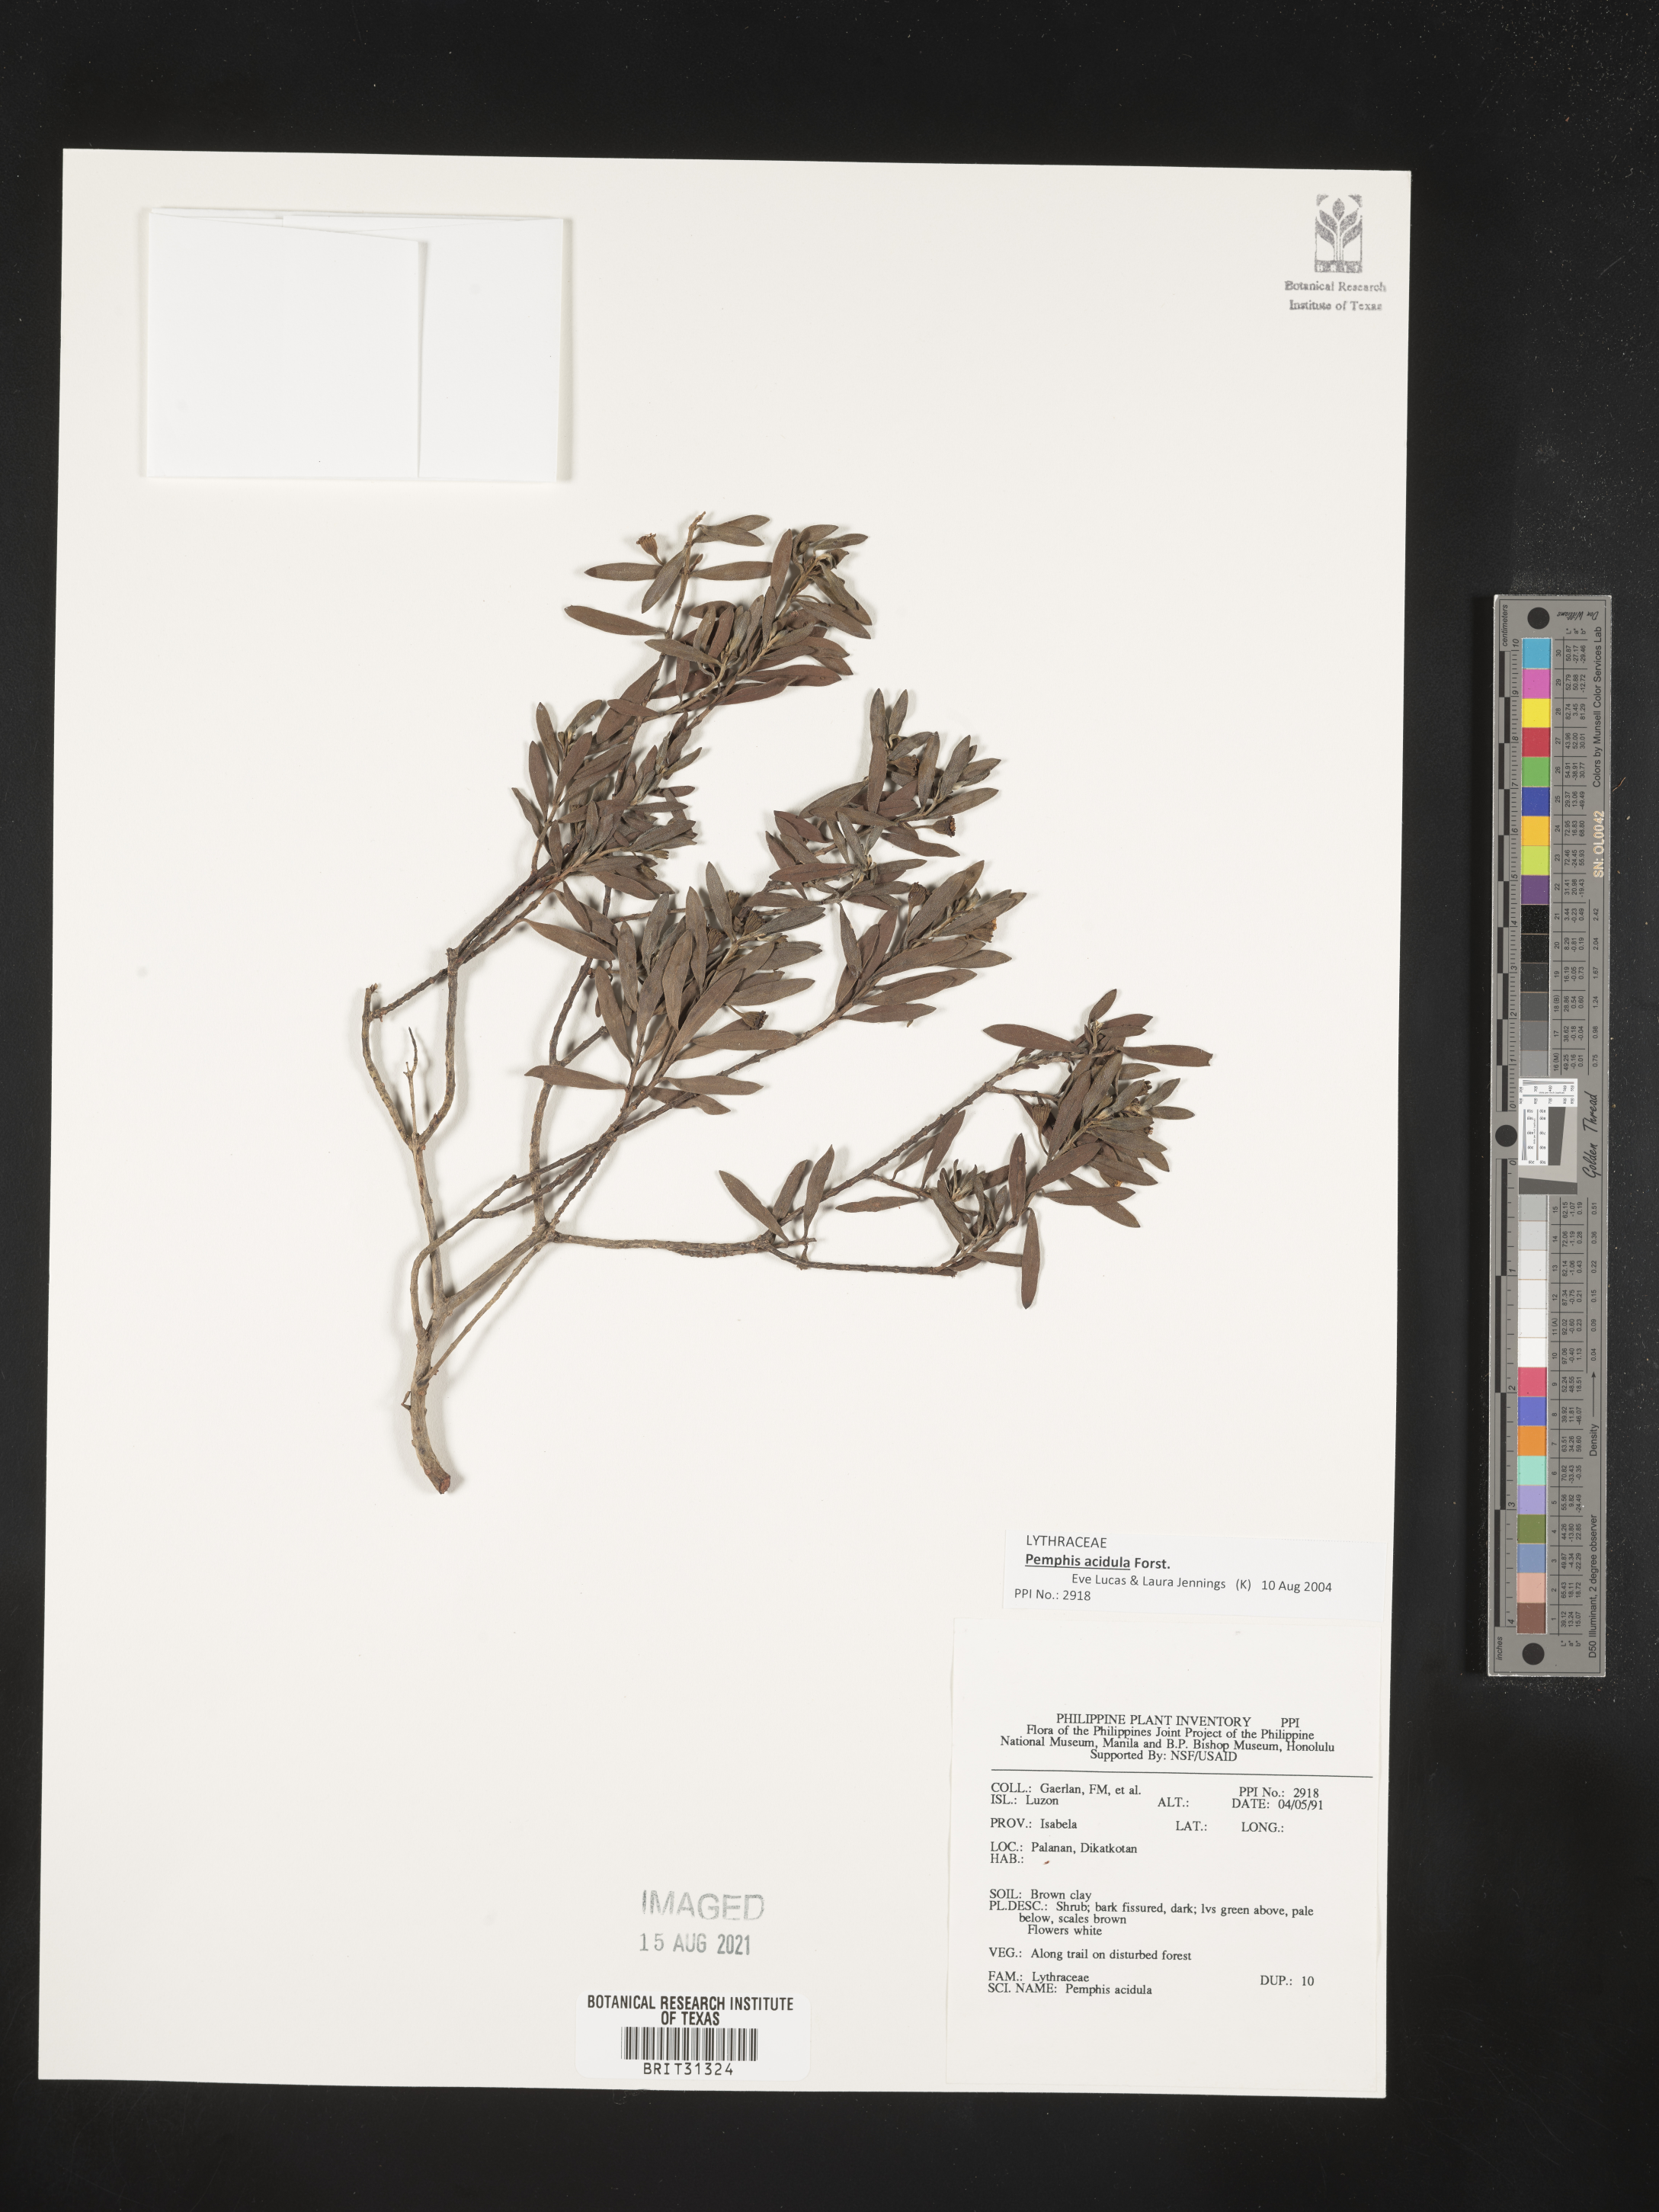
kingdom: Plantae
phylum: Tracheophyta
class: Magnoliopsida
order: Myrtales
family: Lythraceae
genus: Pemphis
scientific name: Pemphis acidula
